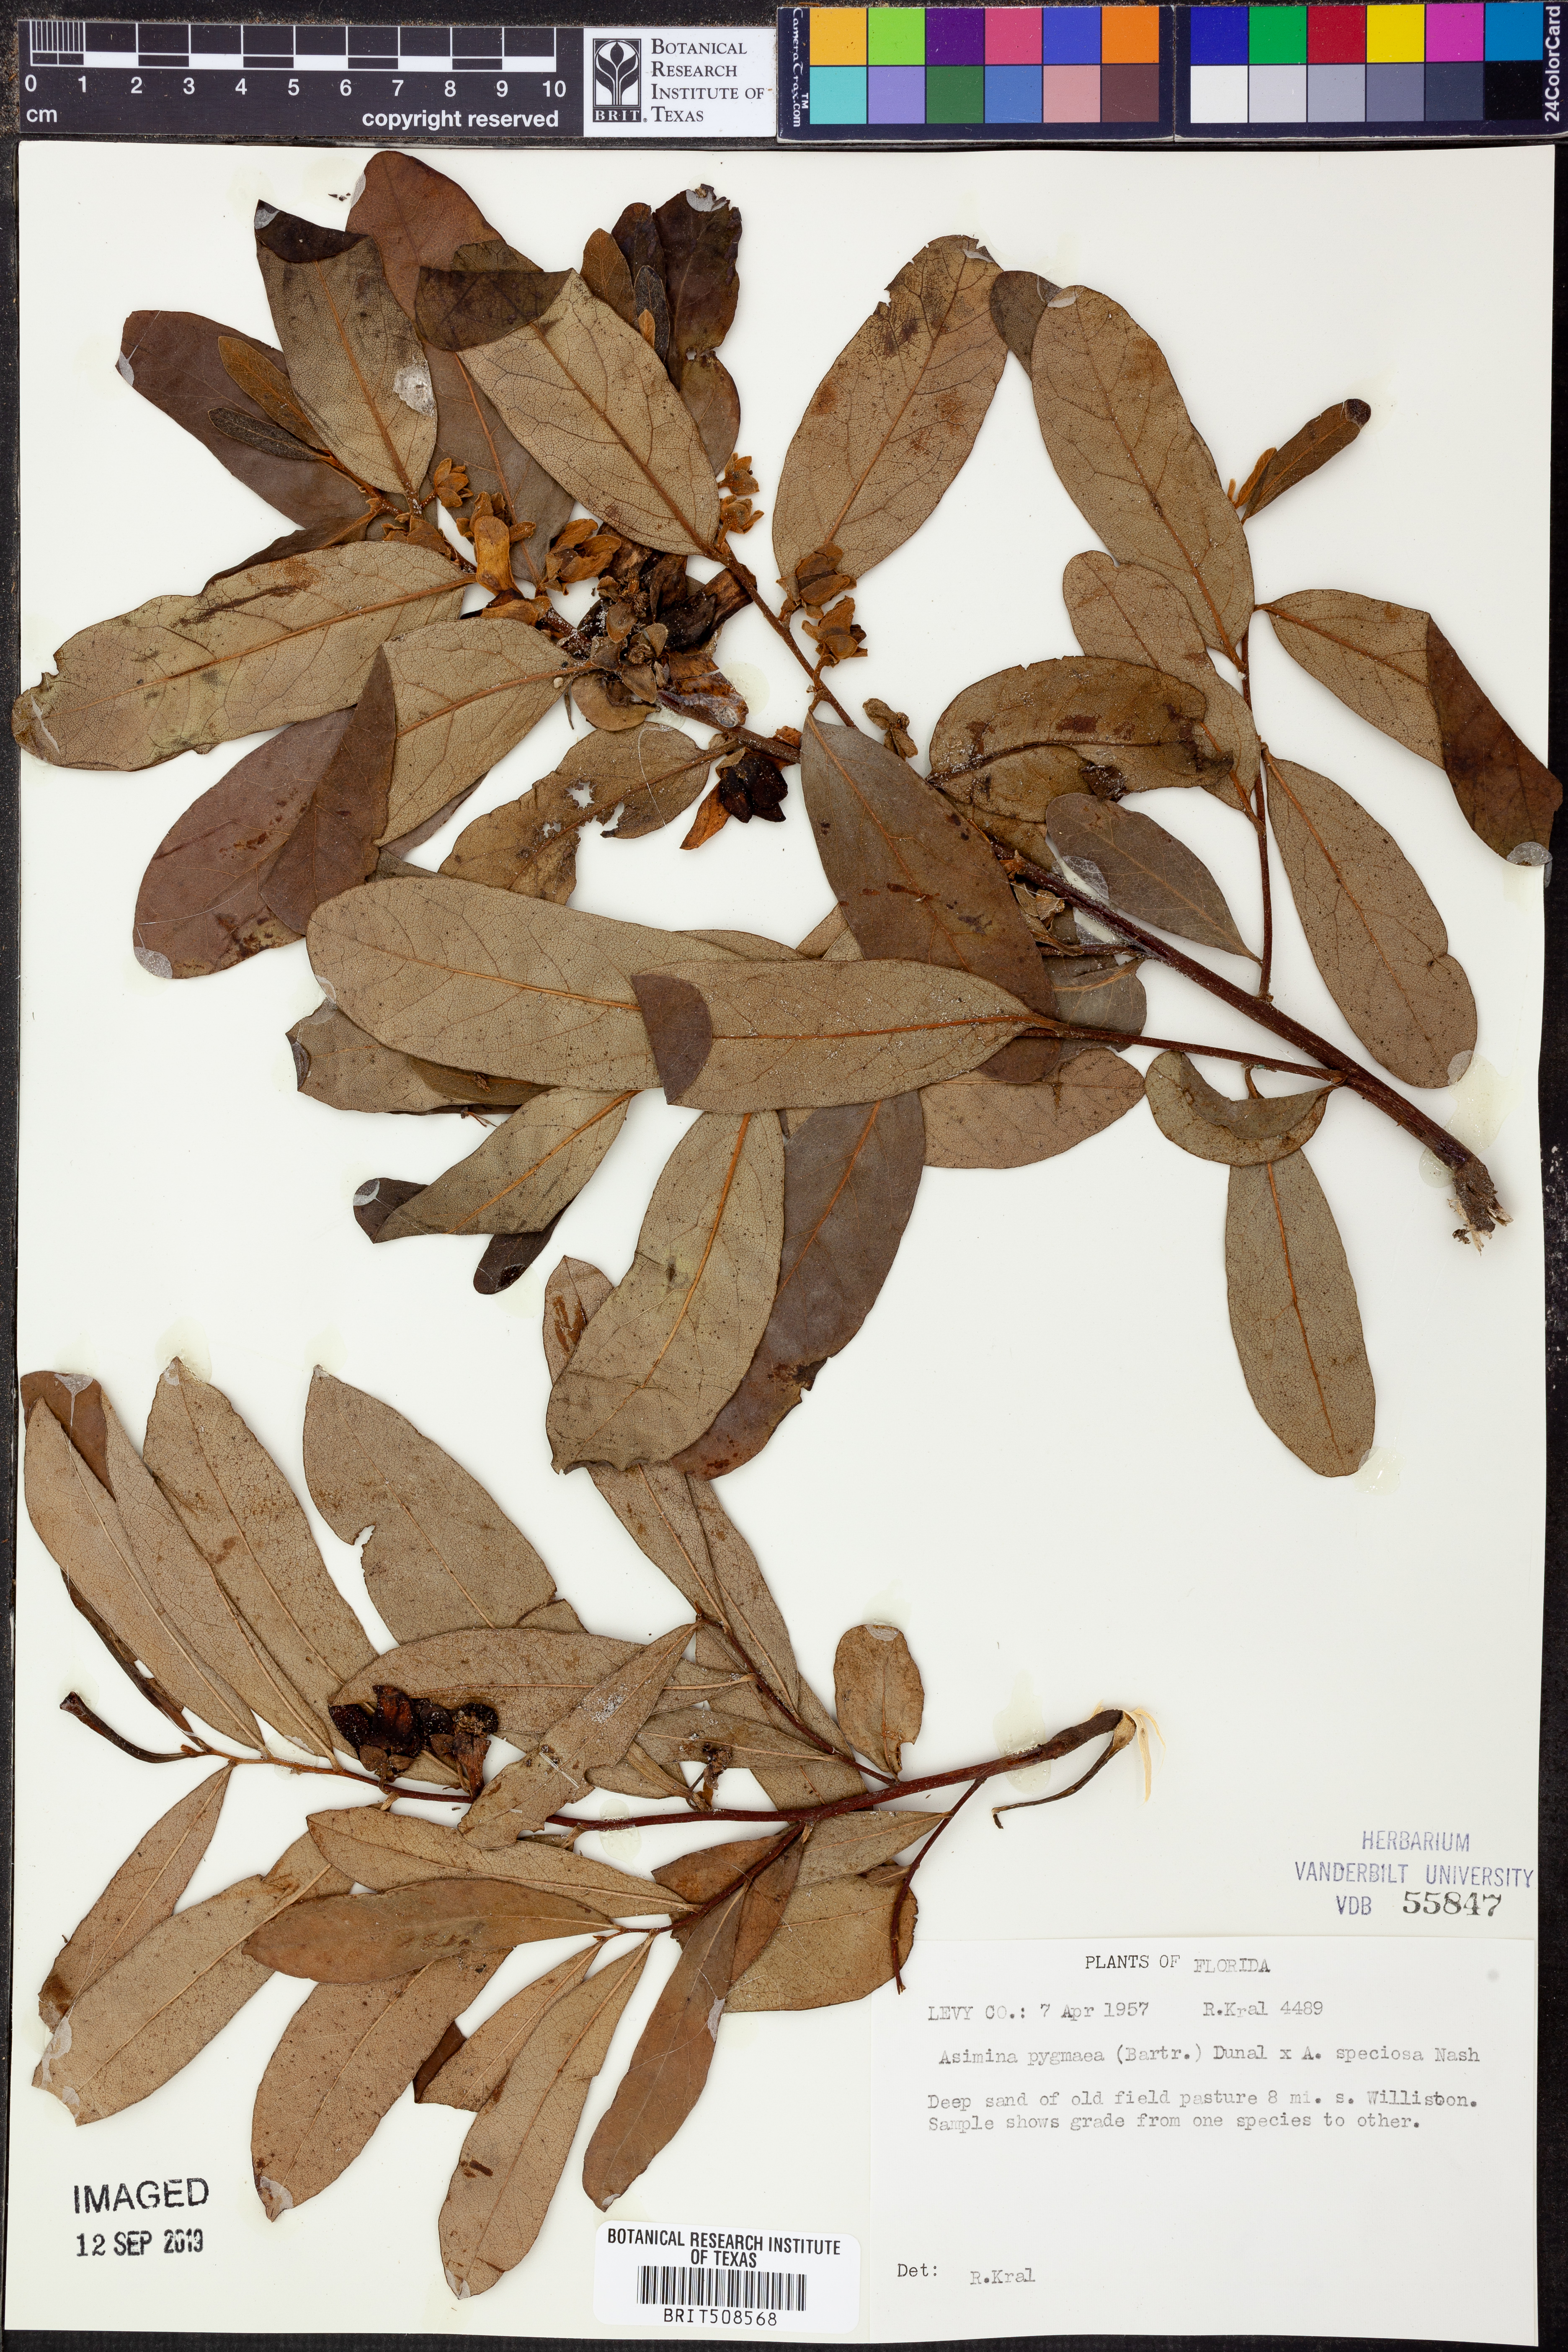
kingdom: Plantae
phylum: Tracheophyta
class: Magnoliopsida
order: Magnoliales
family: Annonaceae
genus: Asimina
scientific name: Asimina pygmaea
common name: Dwarf pawpaw
